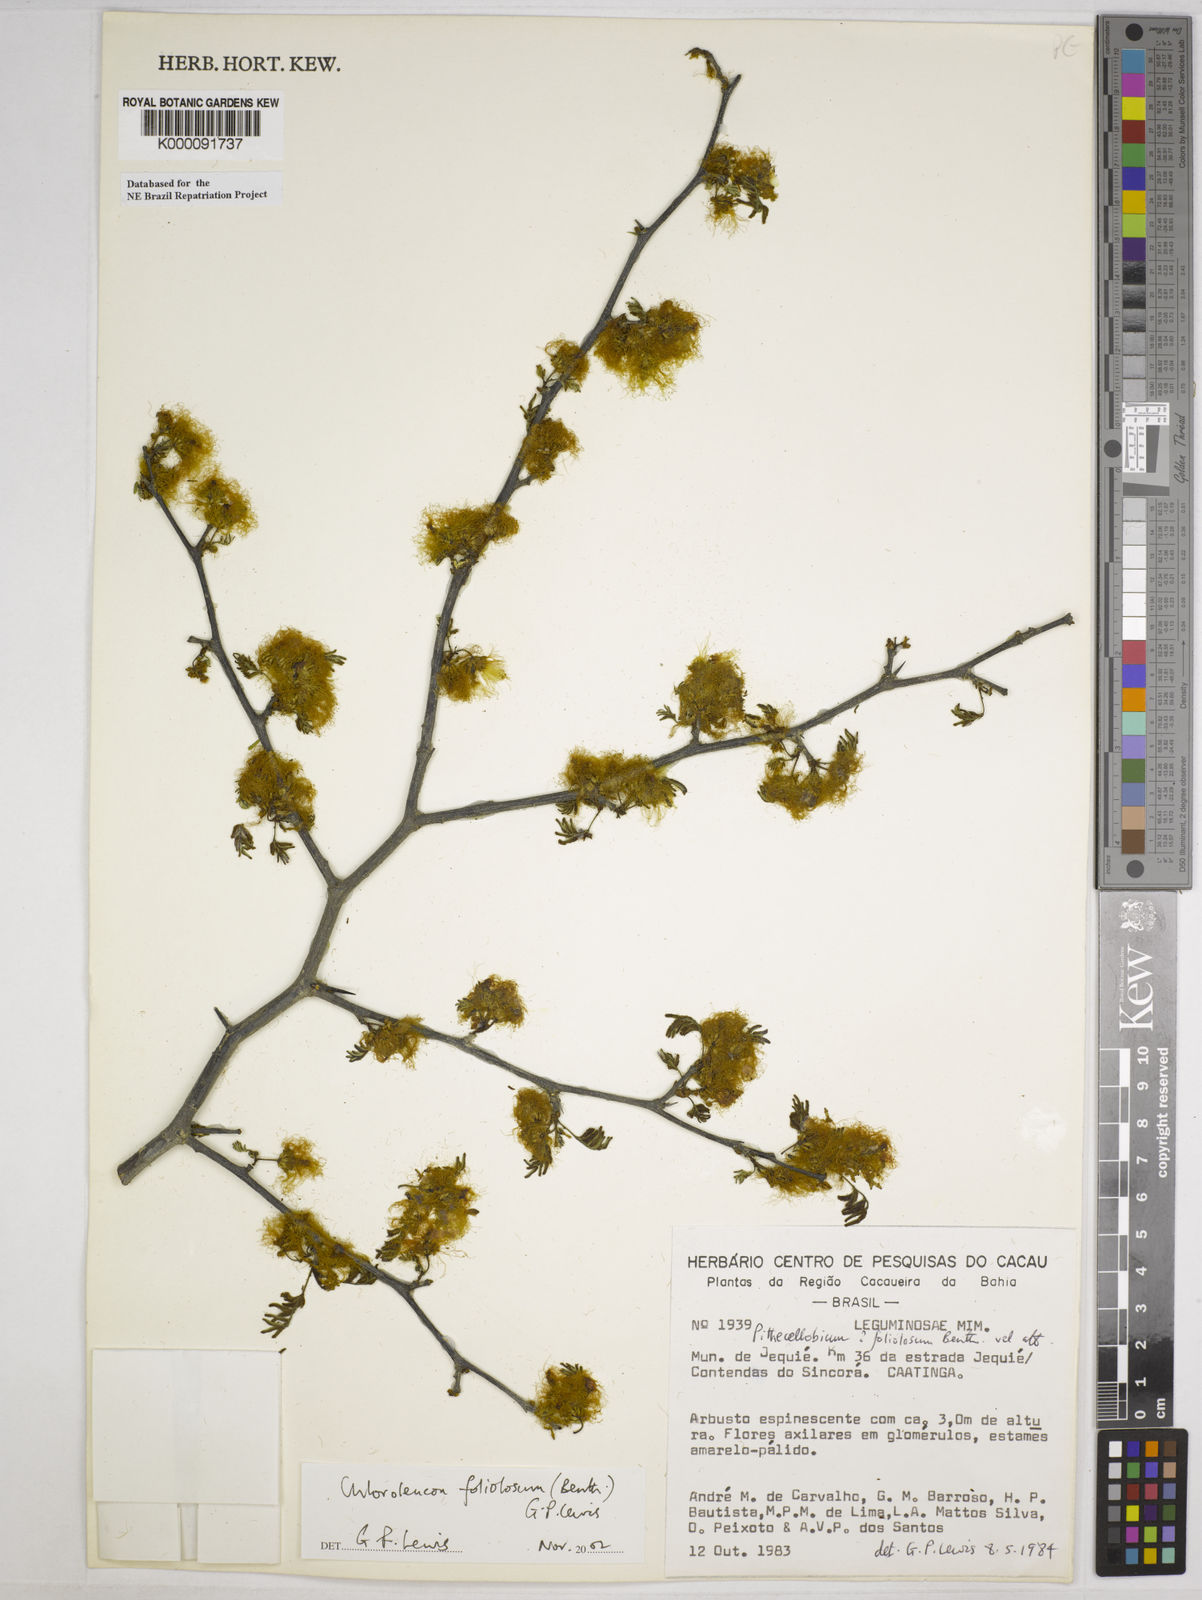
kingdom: Plantae
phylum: Tracheophyta
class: Magnoliopsida
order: Fabales
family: Fabaceae
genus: Chloroleucon
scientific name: Chloroleucon foliolosum
